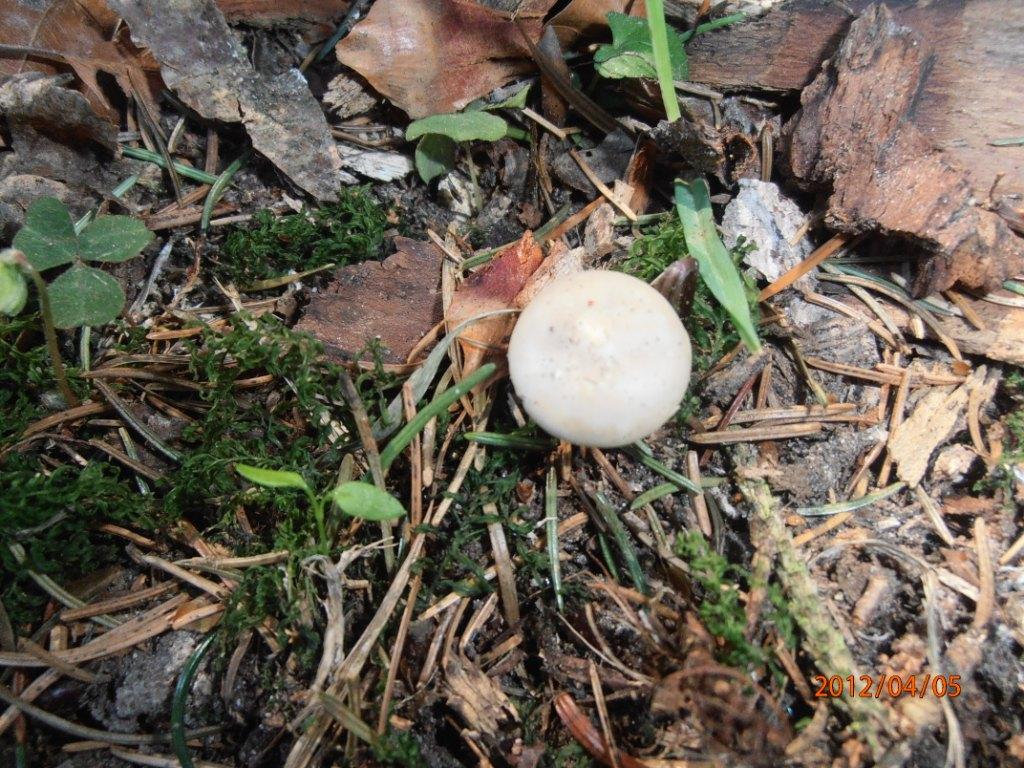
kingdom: Fungi
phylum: Basidiomycota
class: Agaricomycetes
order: Agaricales
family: Physalacriaceae
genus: Strobilurus
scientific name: Strobilurus esculentus
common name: gran-koglehat
